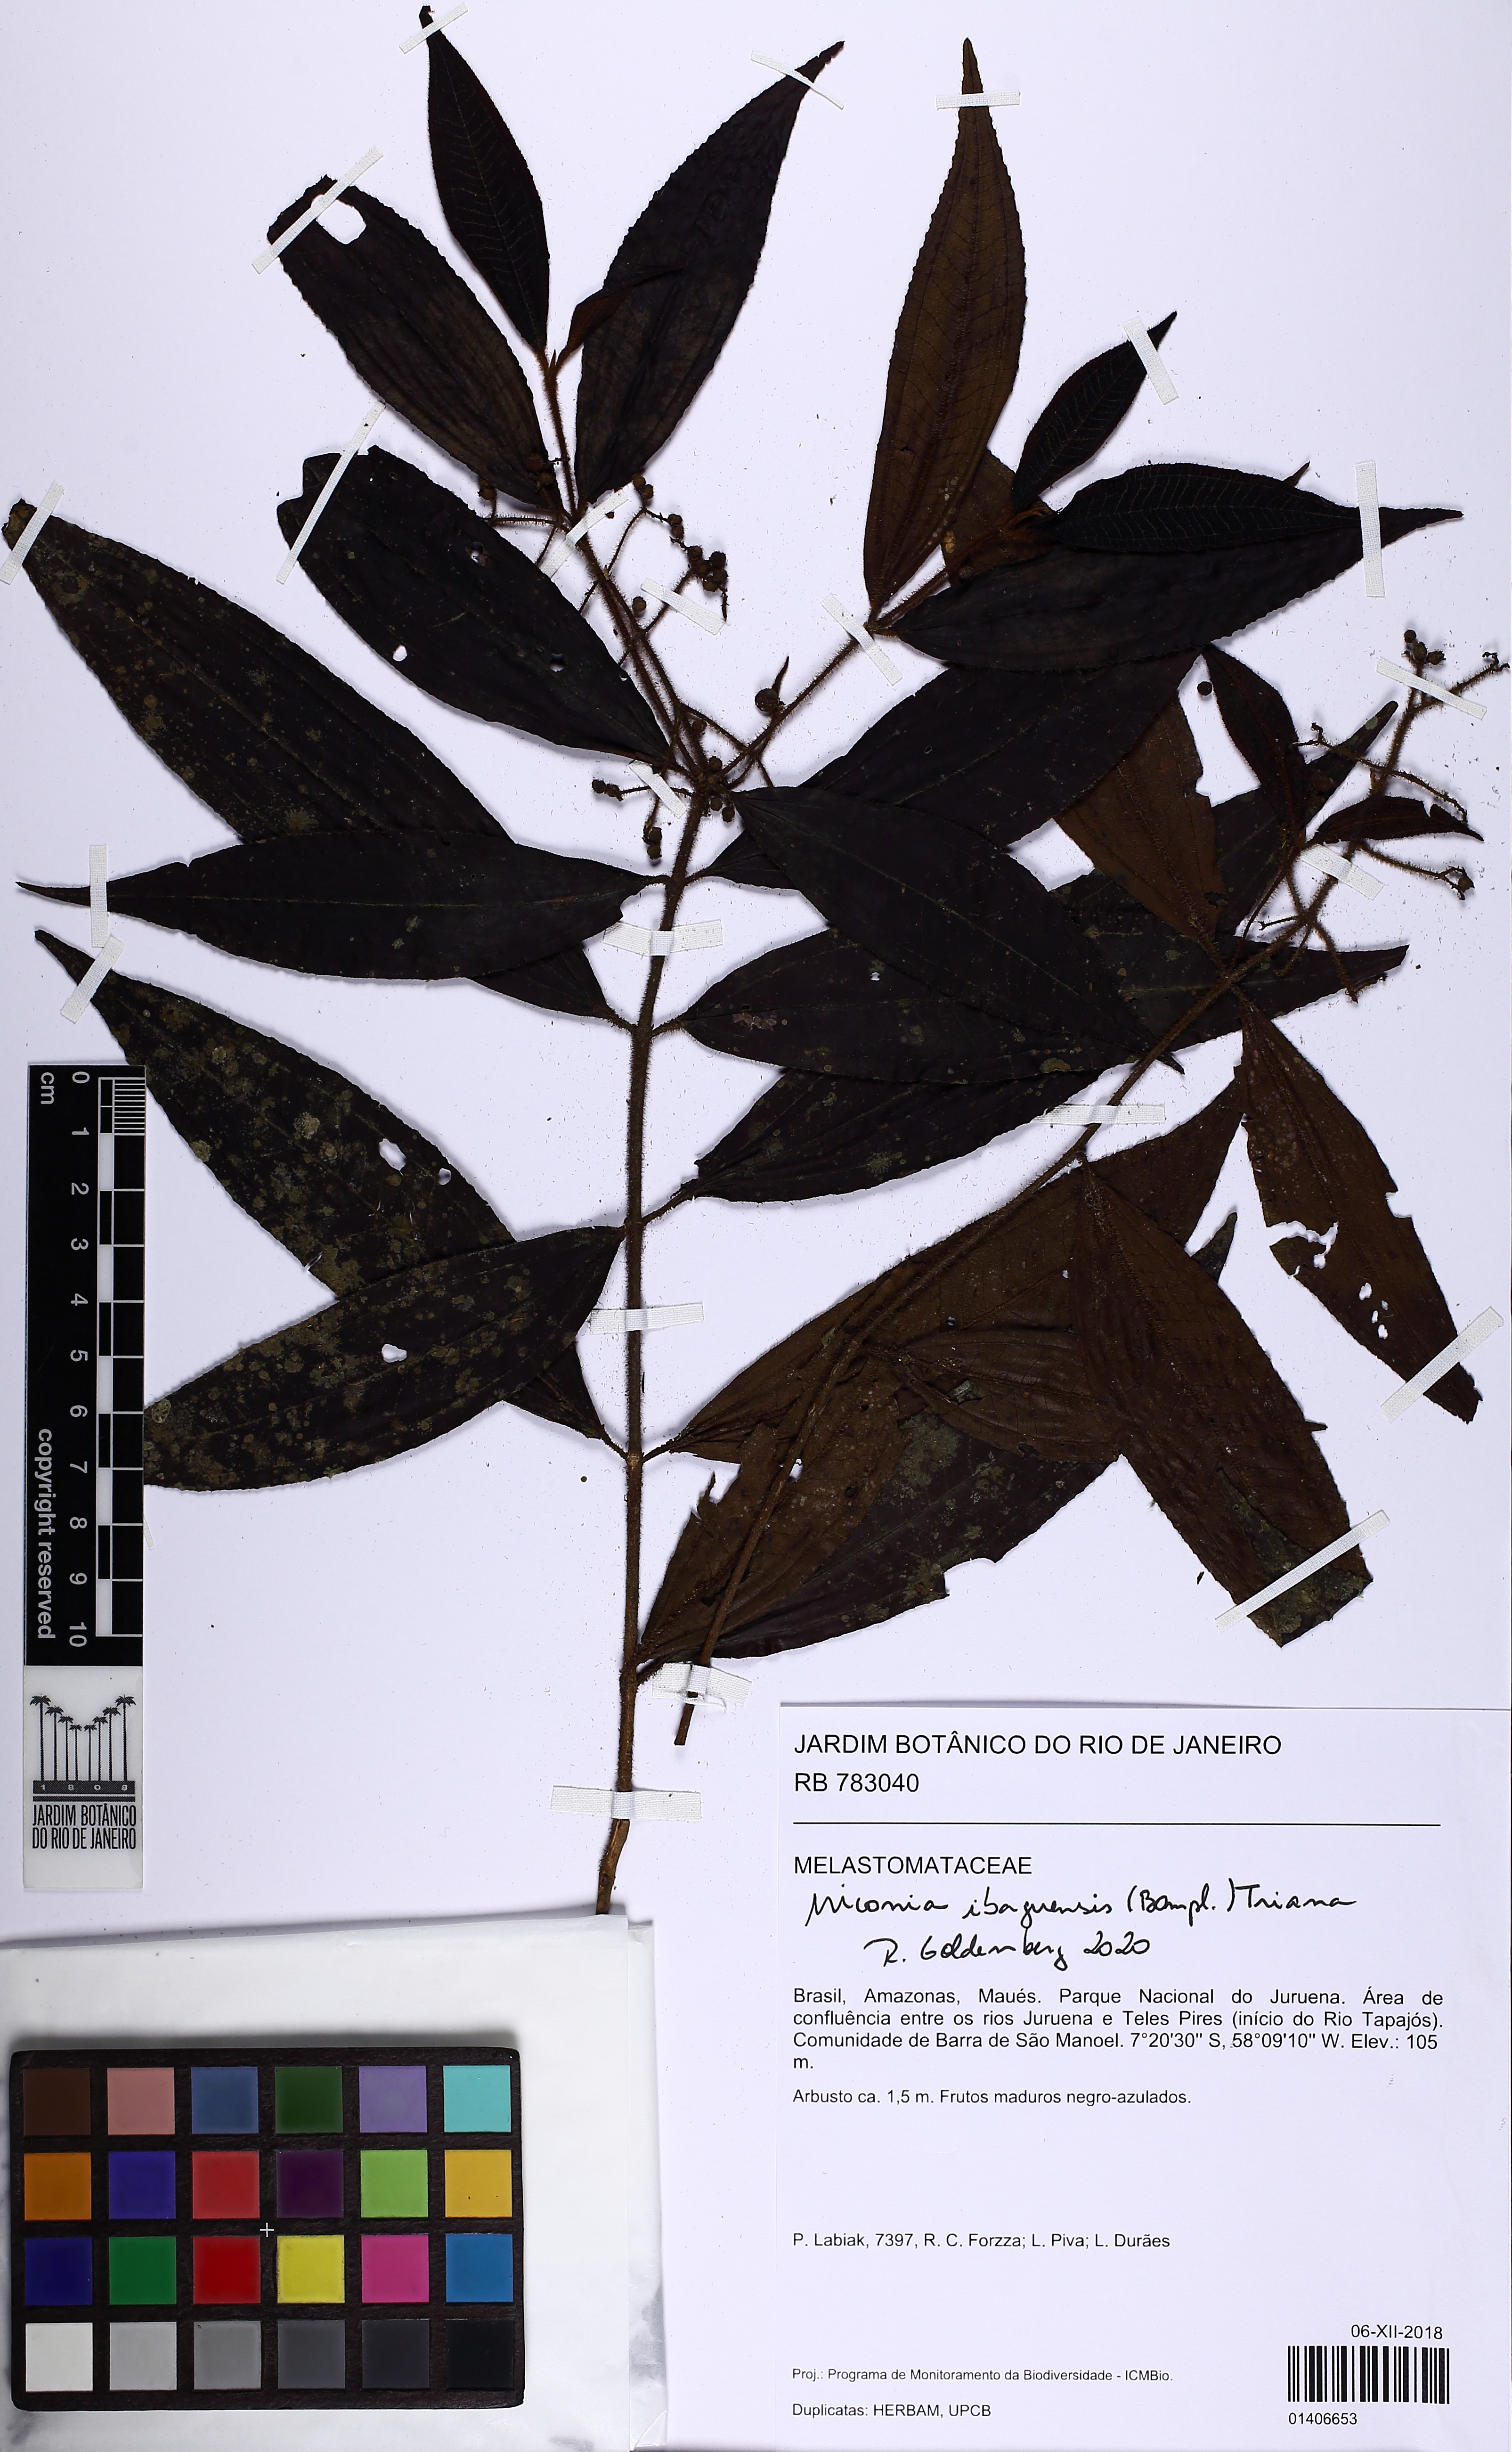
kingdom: Plantae
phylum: Tracheophyta
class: Magnoliopsida
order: Myrtales
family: Melastomataceae
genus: Miconia
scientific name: Miconia ibaguensis
